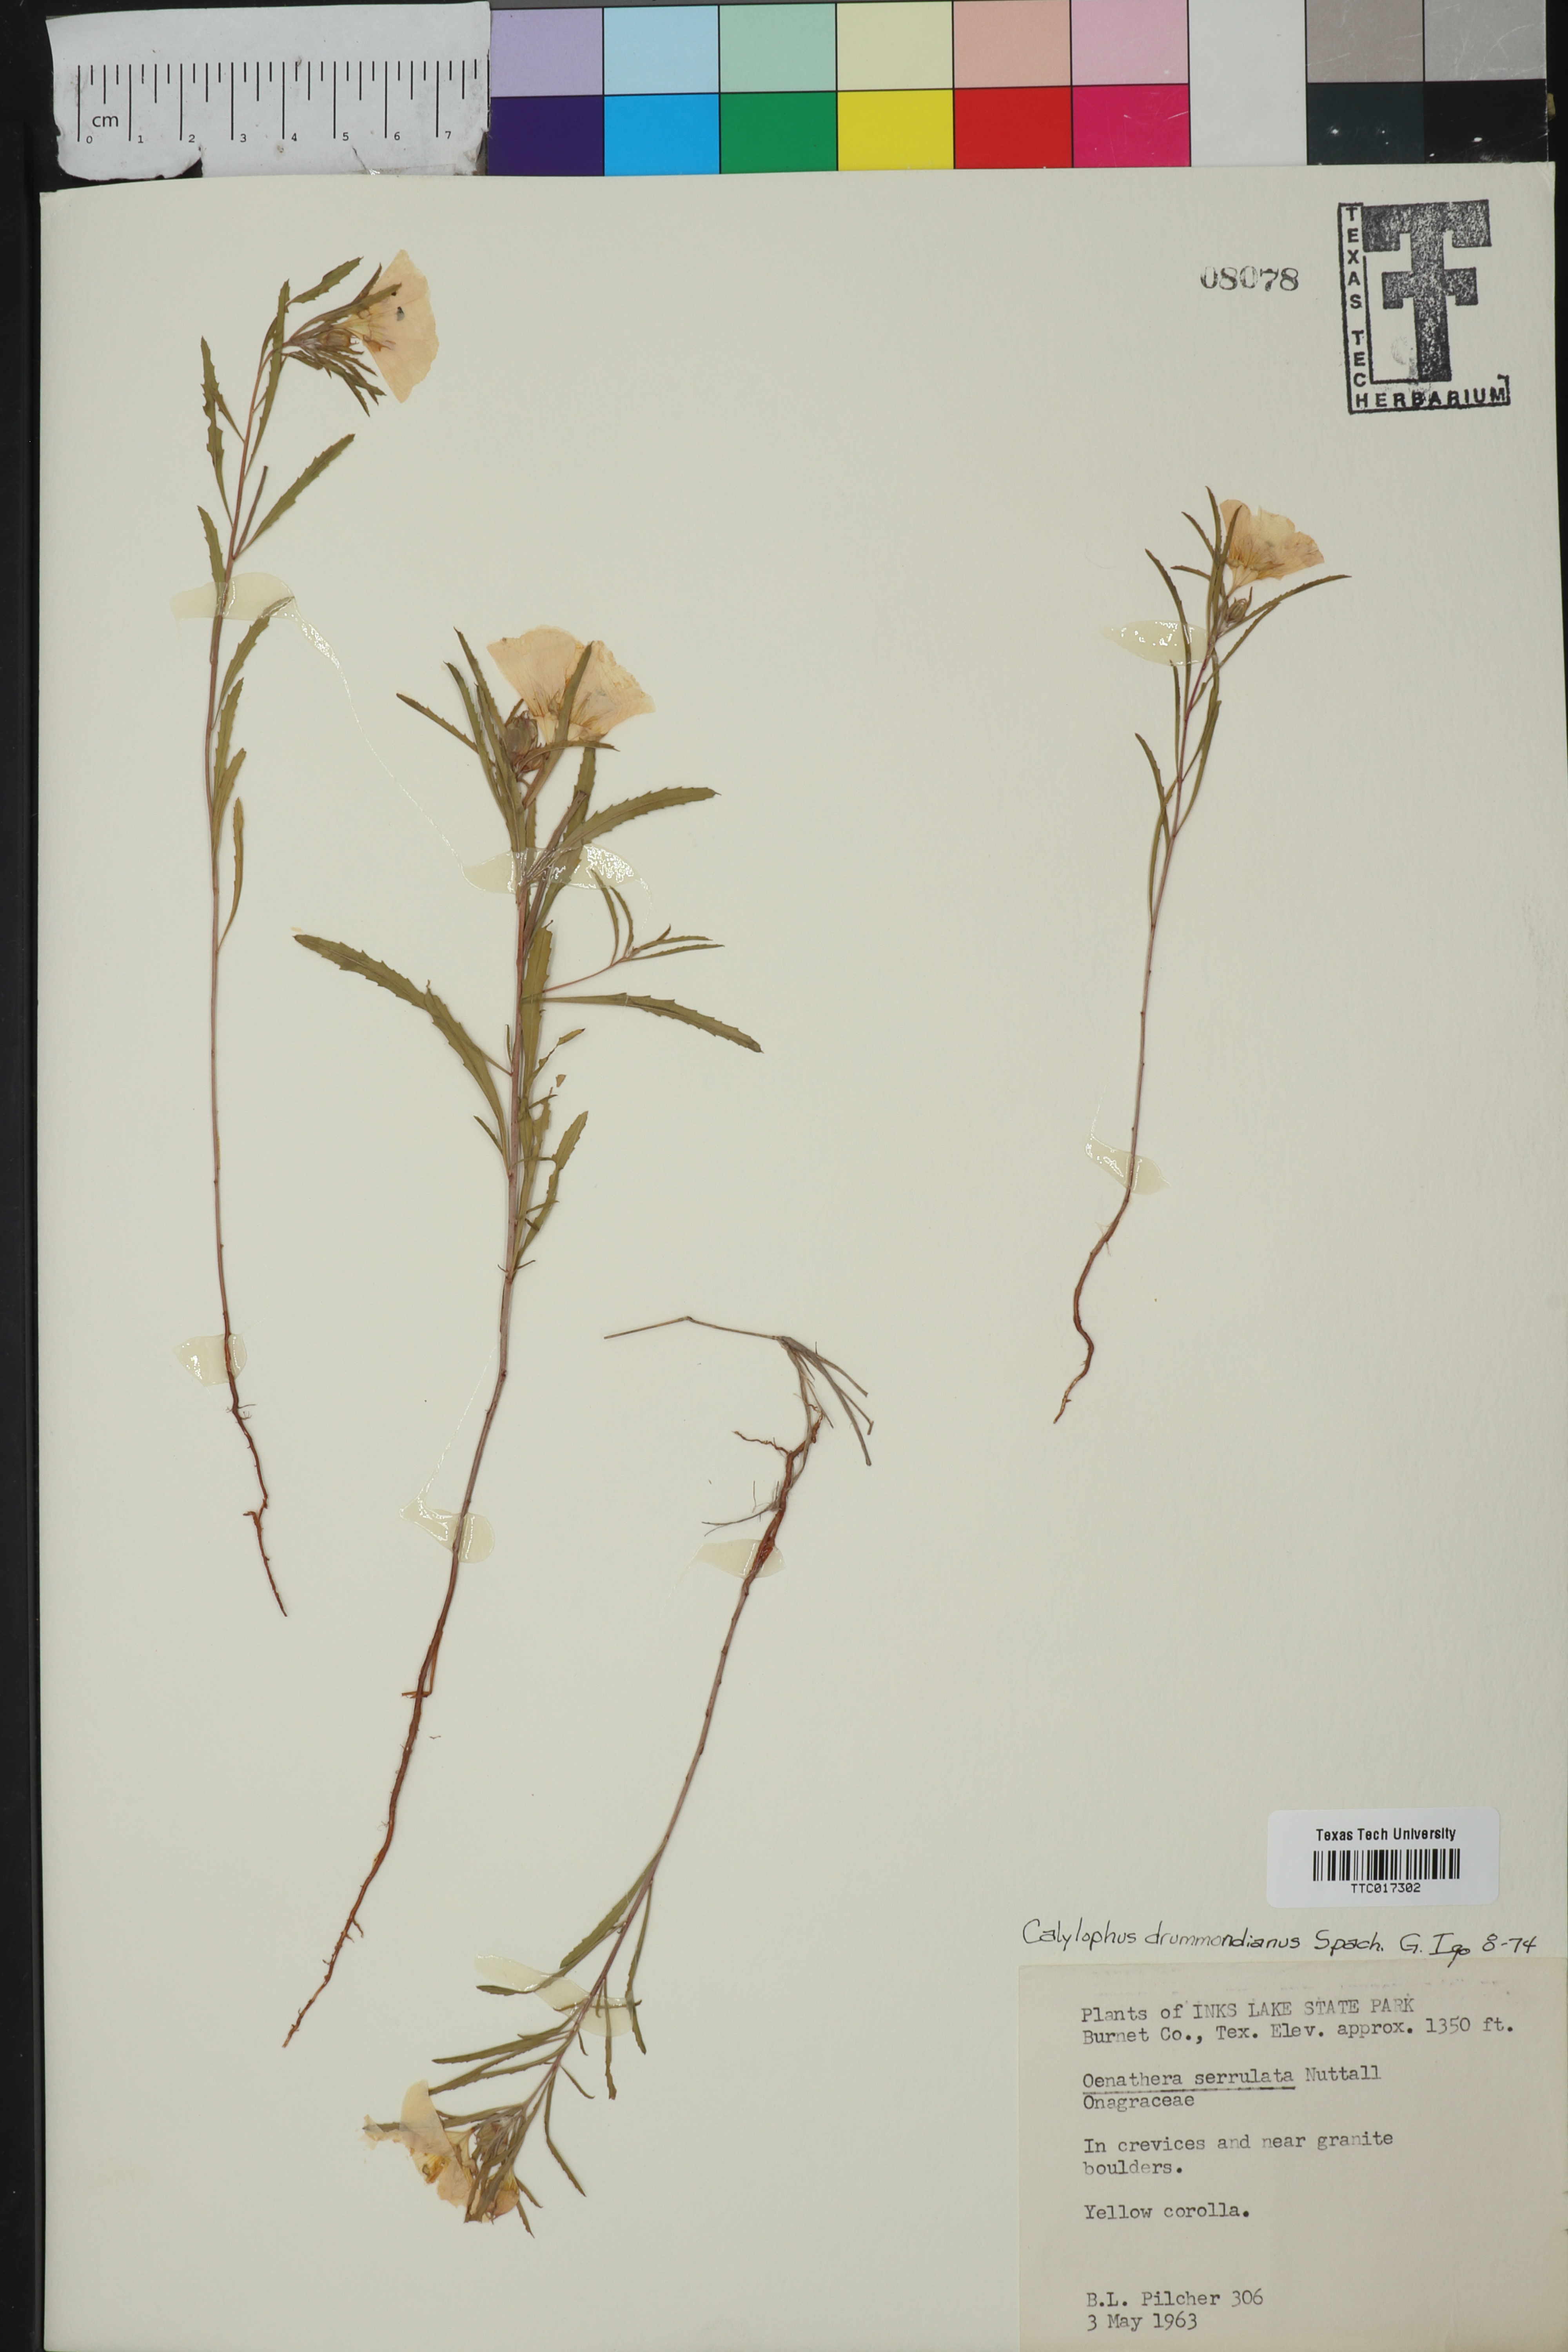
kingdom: Plantae
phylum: Tracheophyta
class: Magnoliopsida
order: Myrtales
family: Onagraceae
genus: Oenothera
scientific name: Oenothera serrulata
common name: Half-shrub calylophus
